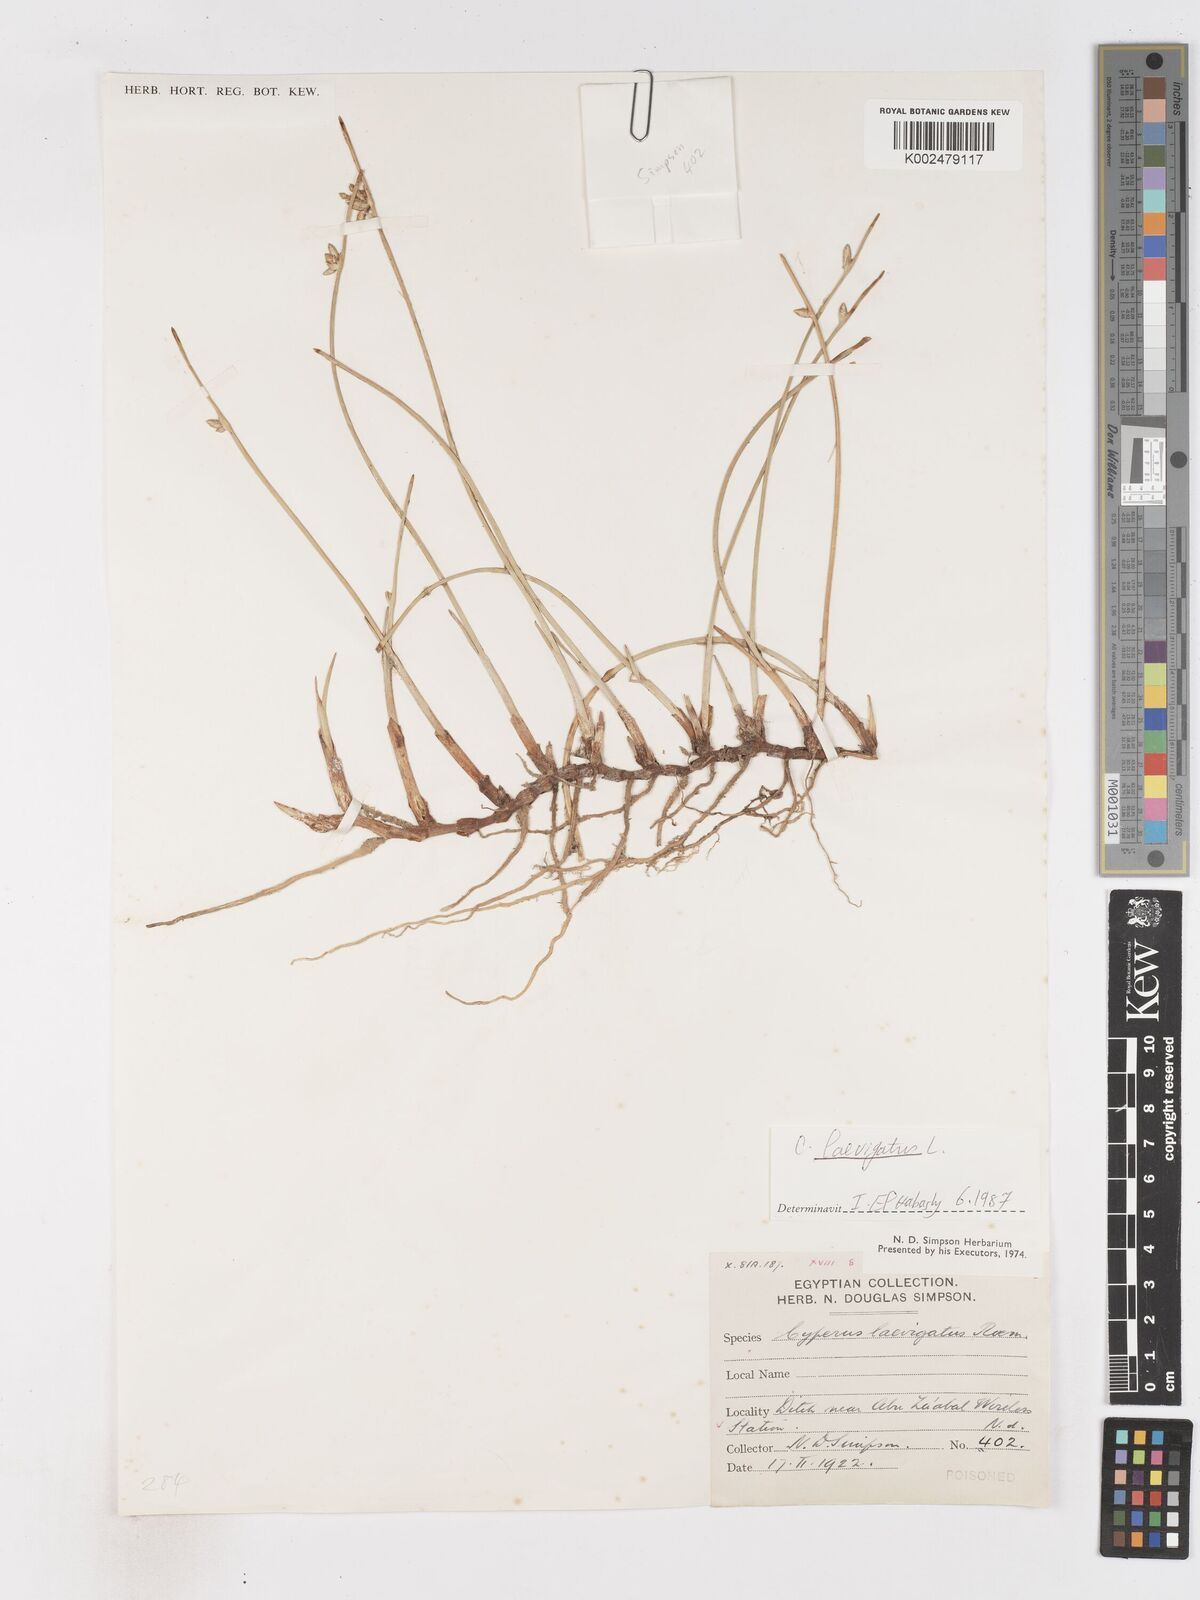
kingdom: Plantae
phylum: Tracheophyta
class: Liliopsida
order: Poales
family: Cyperaceae
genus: Cyperus
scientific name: Cyperus laevigatus
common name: Smooth flat sedge
